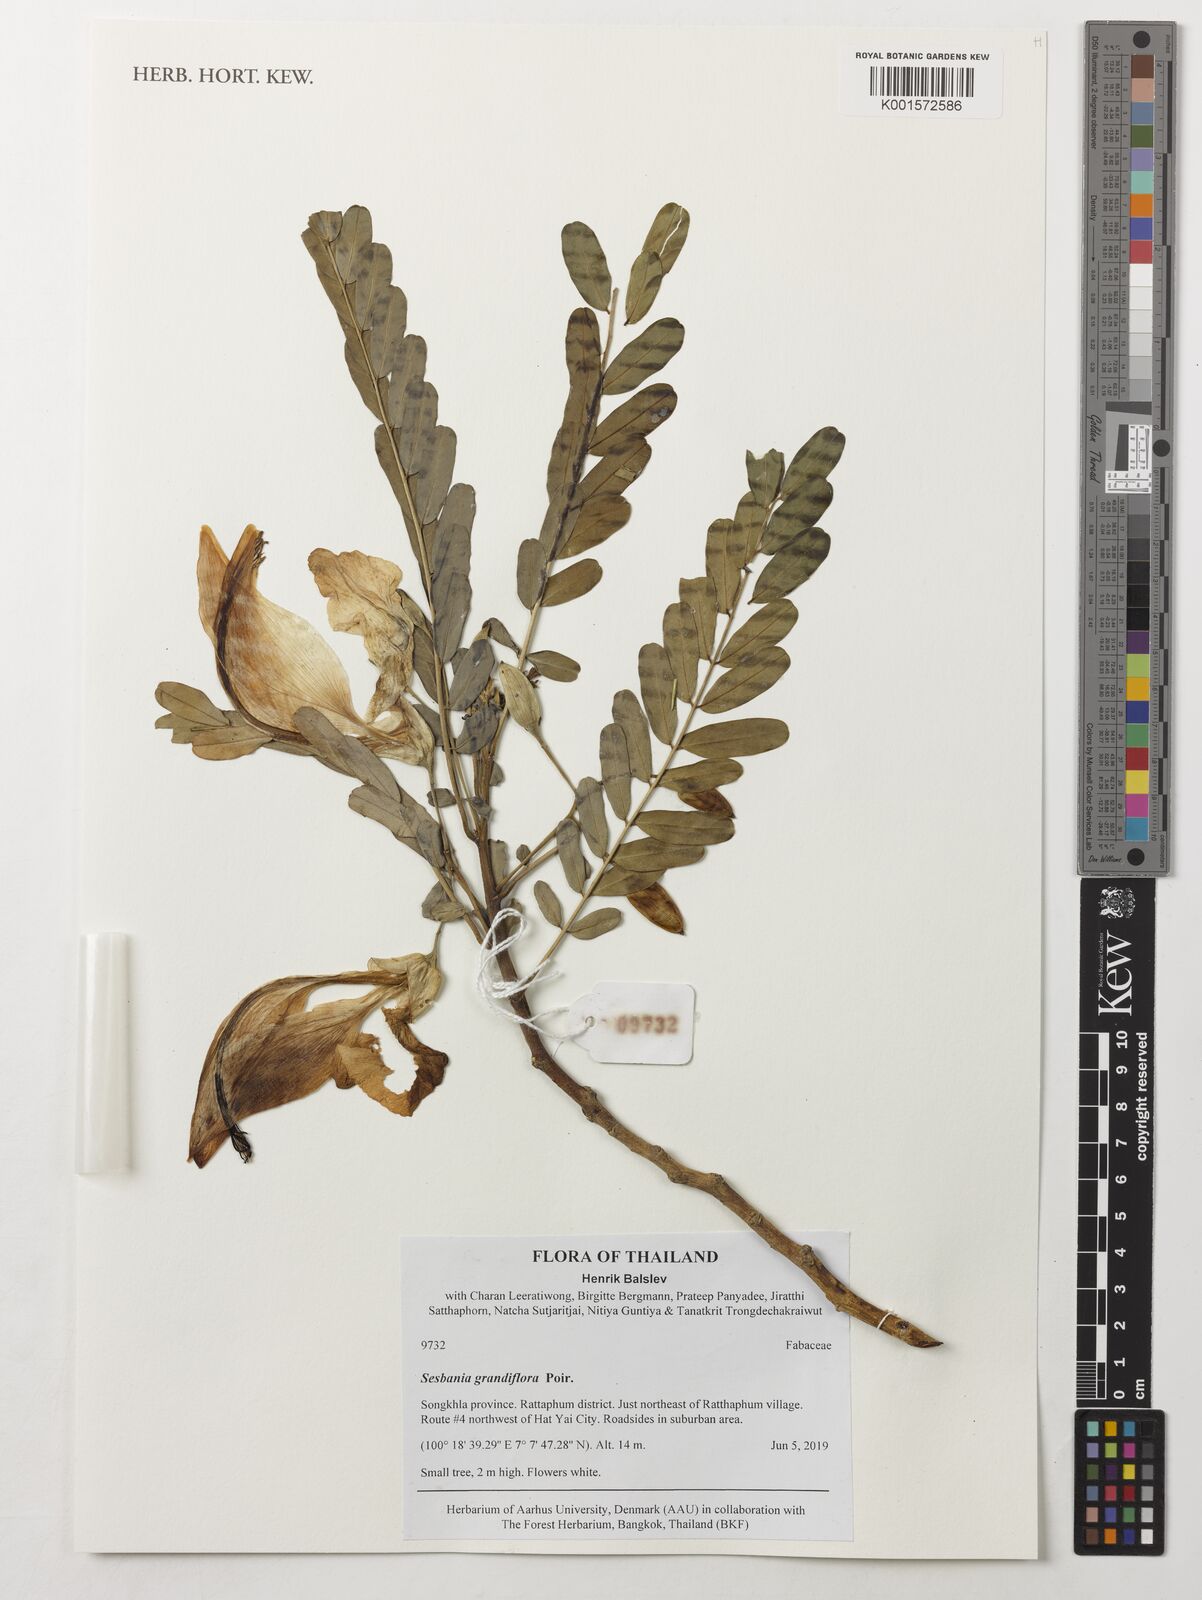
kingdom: Plantae
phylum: Tracheophyta
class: Magnoliopsida
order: Fabales
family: Fabaceae
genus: Sesbania
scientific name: Sesbania grandiflora
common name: Vegetable-hummingbird
